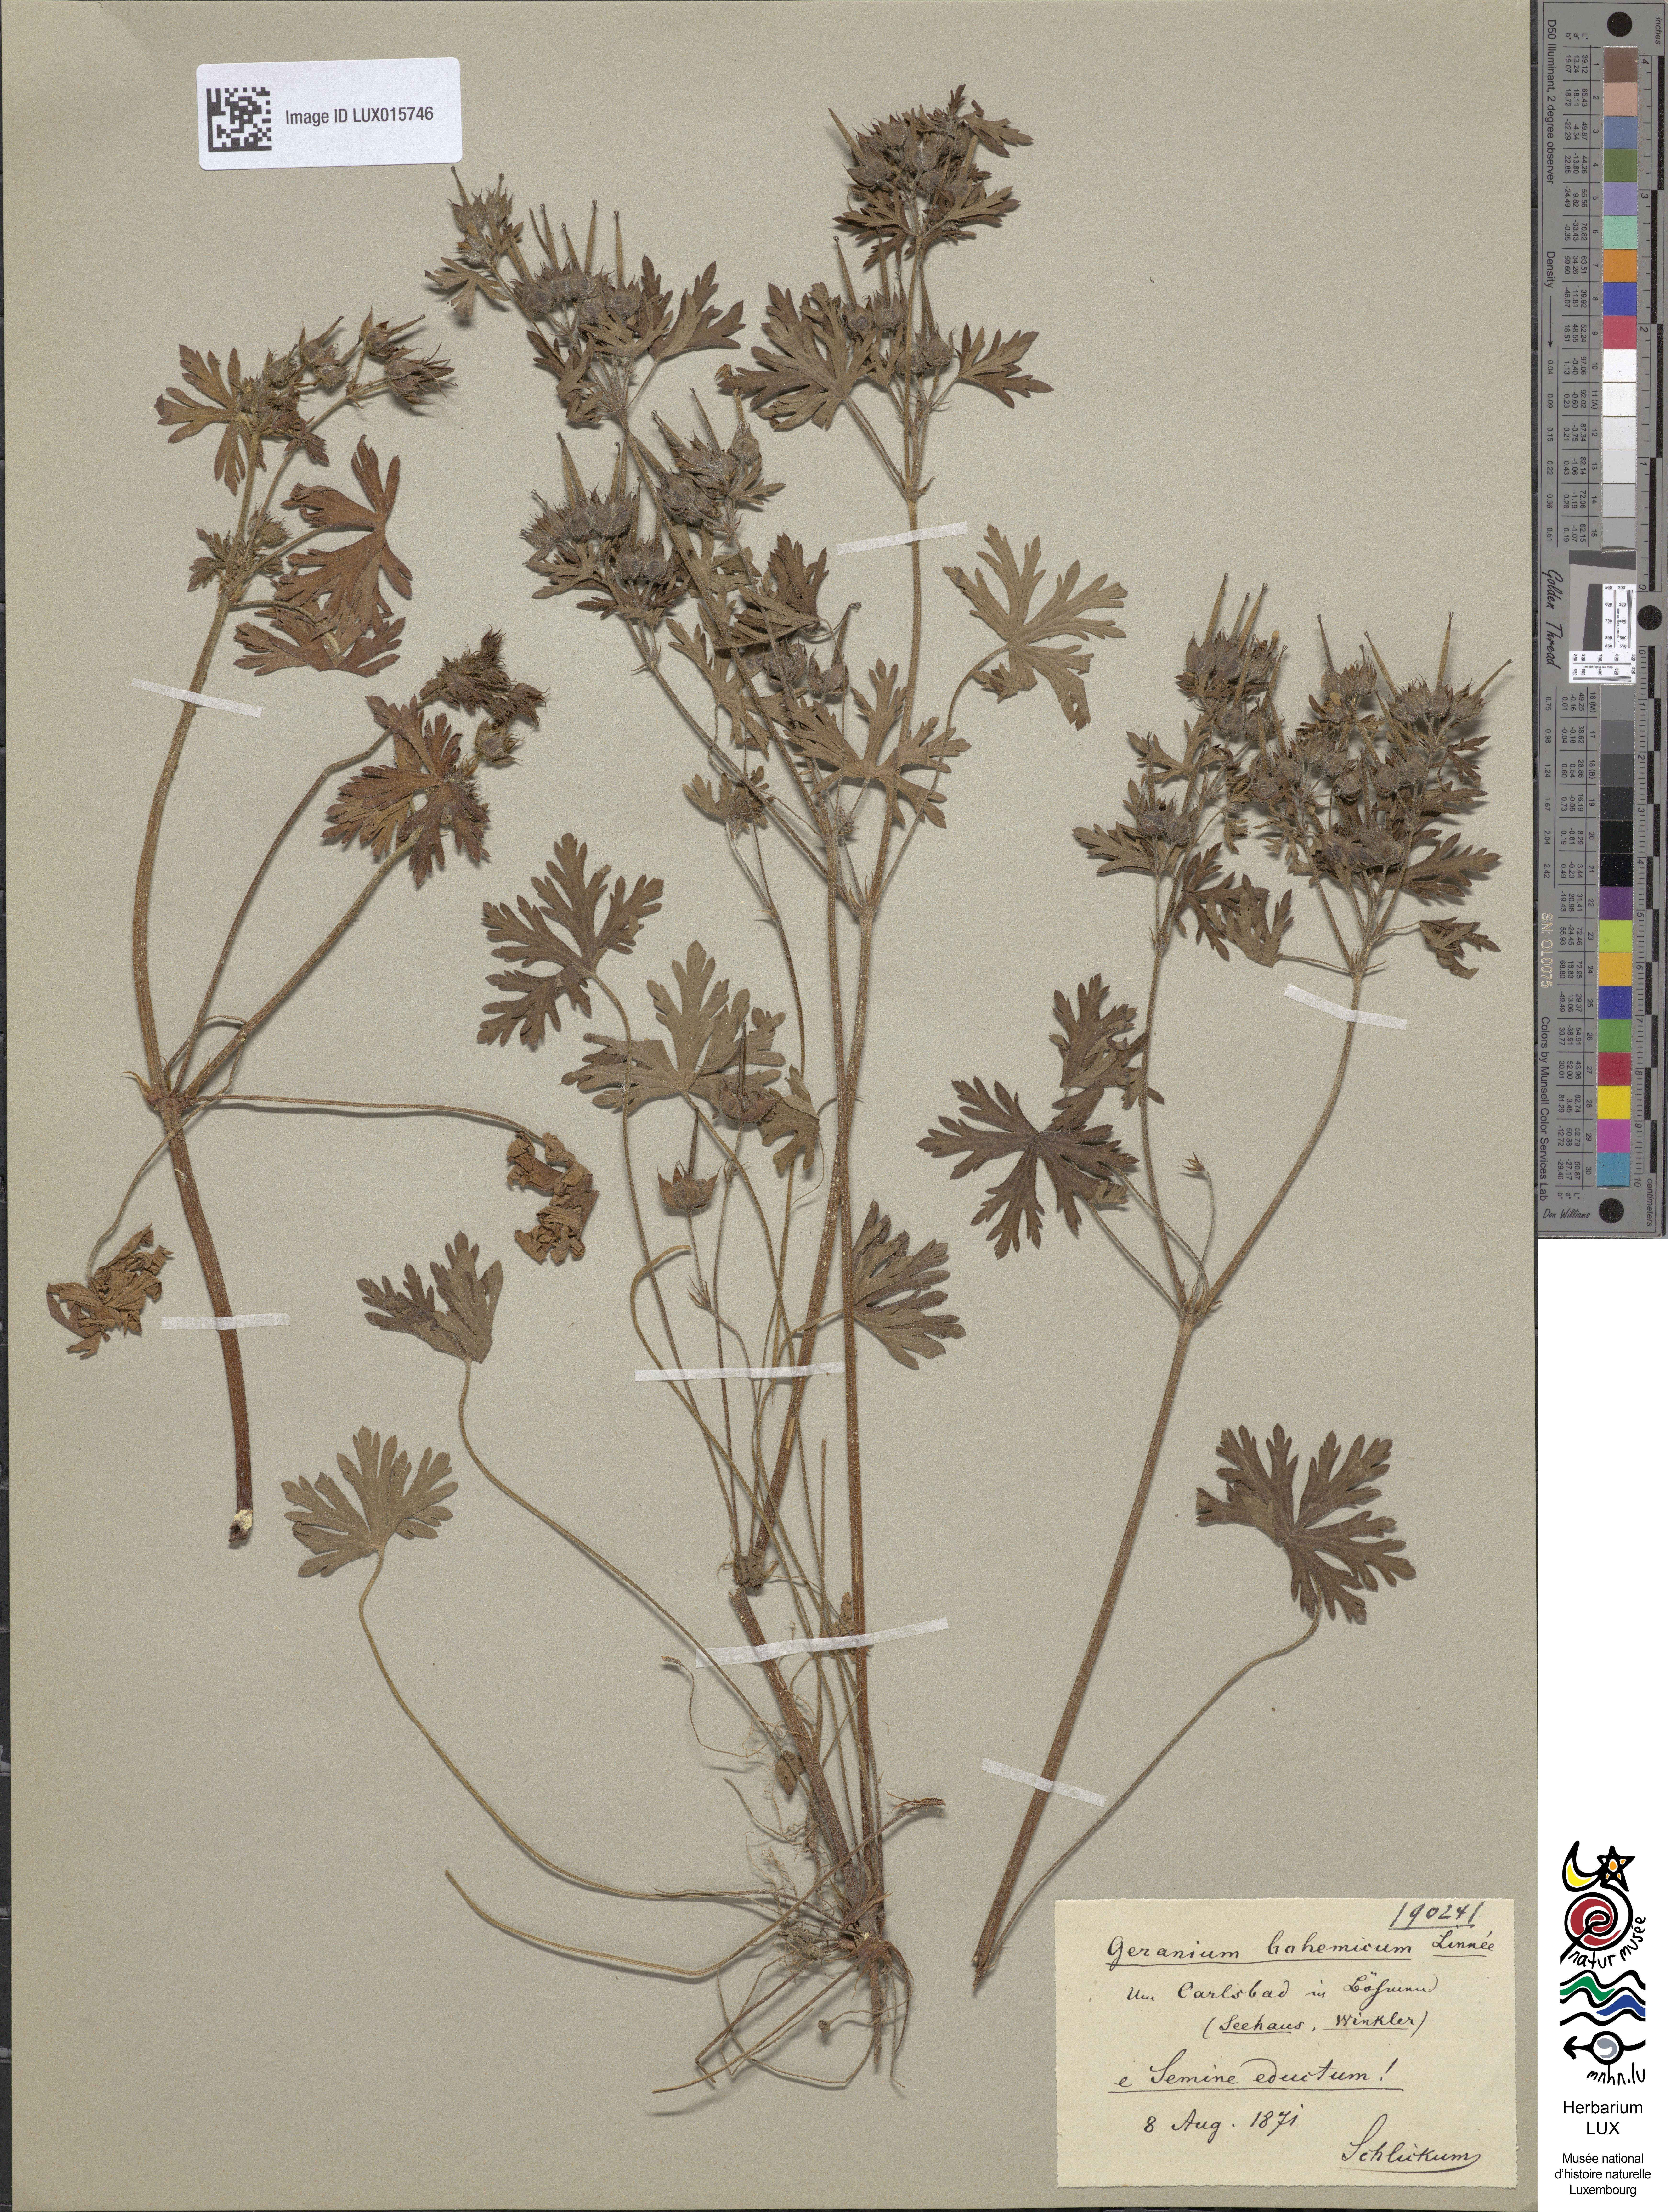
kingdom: Plantae
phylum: Tracheophyta
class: Magnoliopsida
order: Geraniales
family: Geraniaceae
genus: Geranium
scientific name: Geranium bohemicum
